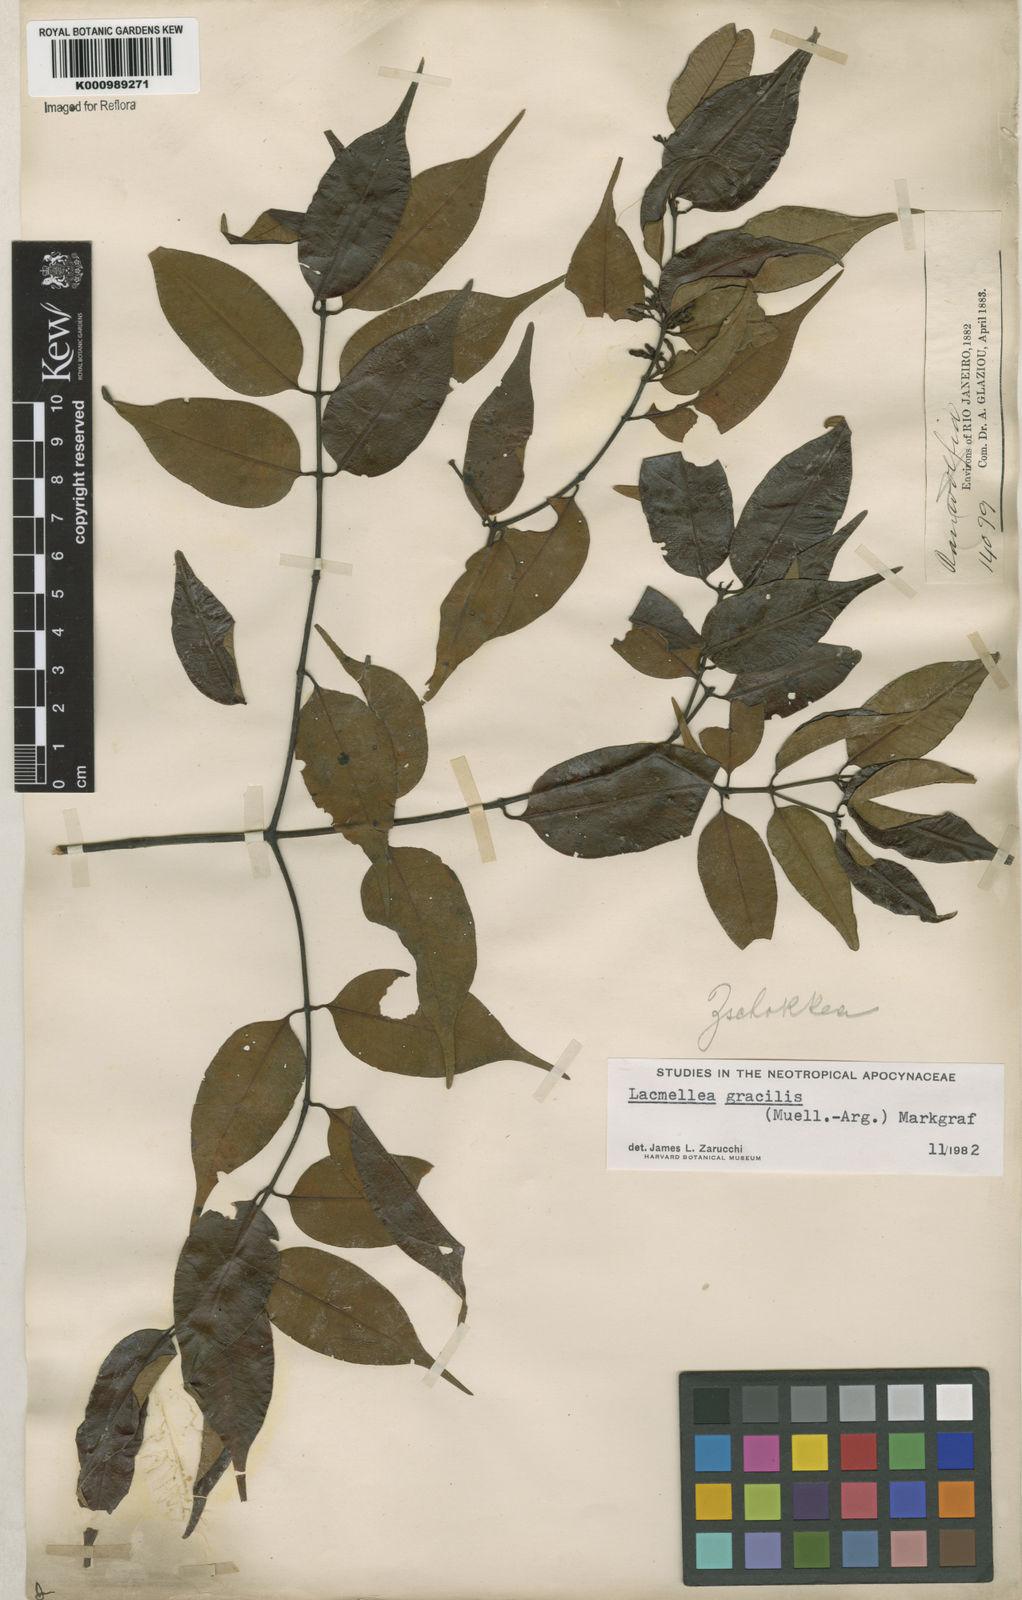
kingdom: Plantae
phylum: Tracheophyta
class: Magnoliopsida
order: Gentianales
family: Apocynaceae
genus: Lacmellea
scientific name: Lacmellea
